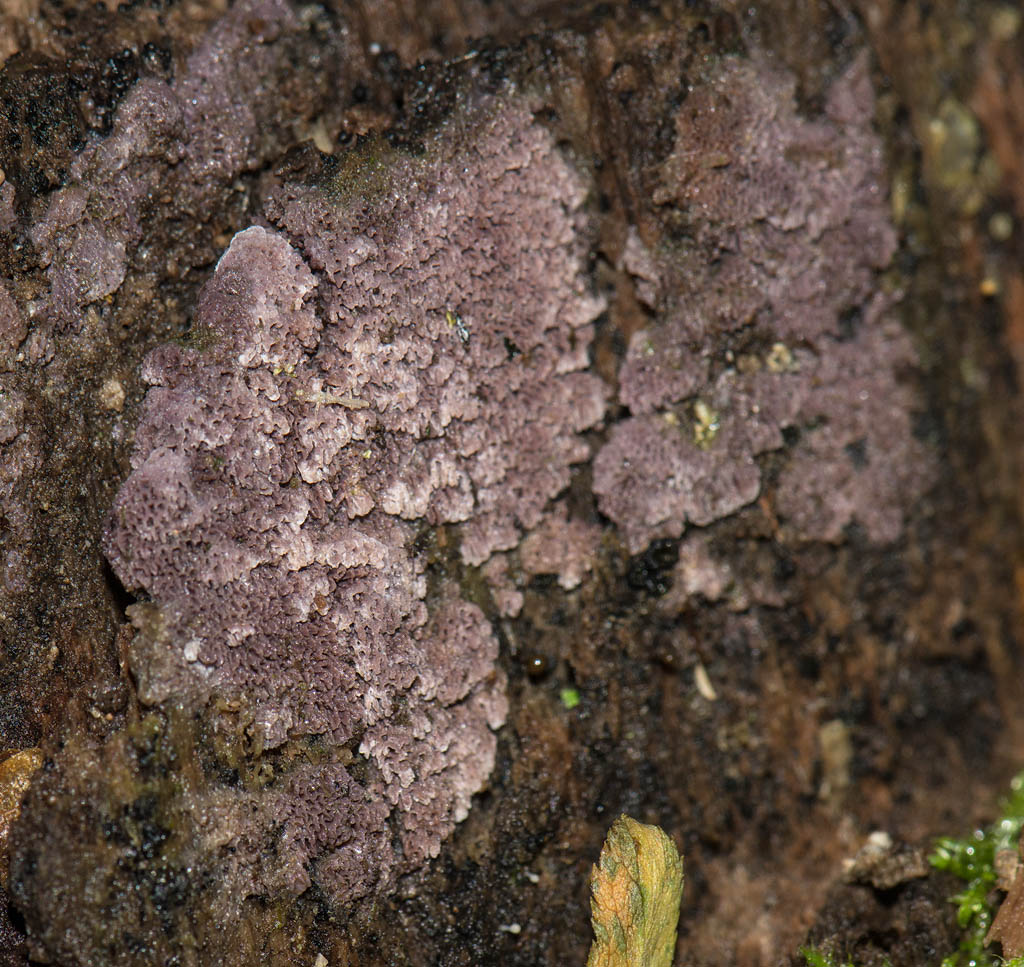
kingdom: Fungi
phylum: Basidiomycota
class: Agaricomycetes
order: Polyporales
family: Irpicaceae
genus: Ceriporia
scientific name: Ceriporia excelsa
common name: lilla voksporesvamp
